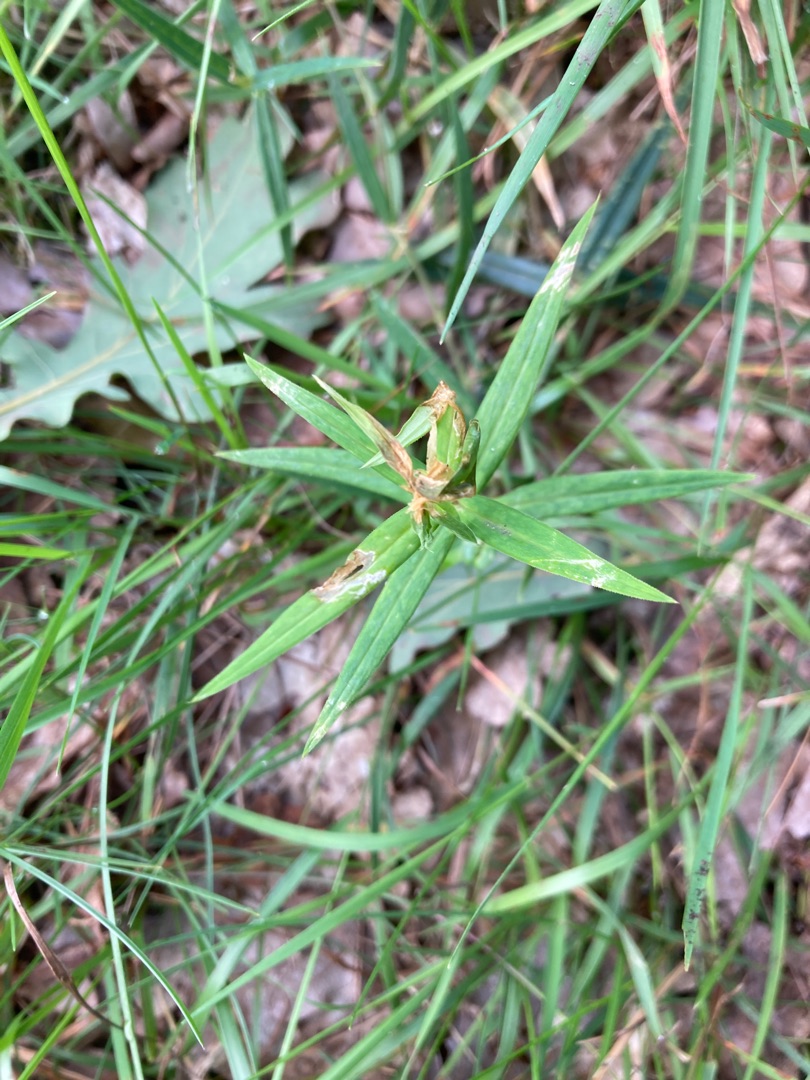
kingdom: Plantae
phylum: Tracheophyta
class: Magnoliopsida
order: Caryophyllales
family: Caryophyllaceae
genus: Rabelera
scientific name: Rabelera holostea
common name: Stor fladstjerne
